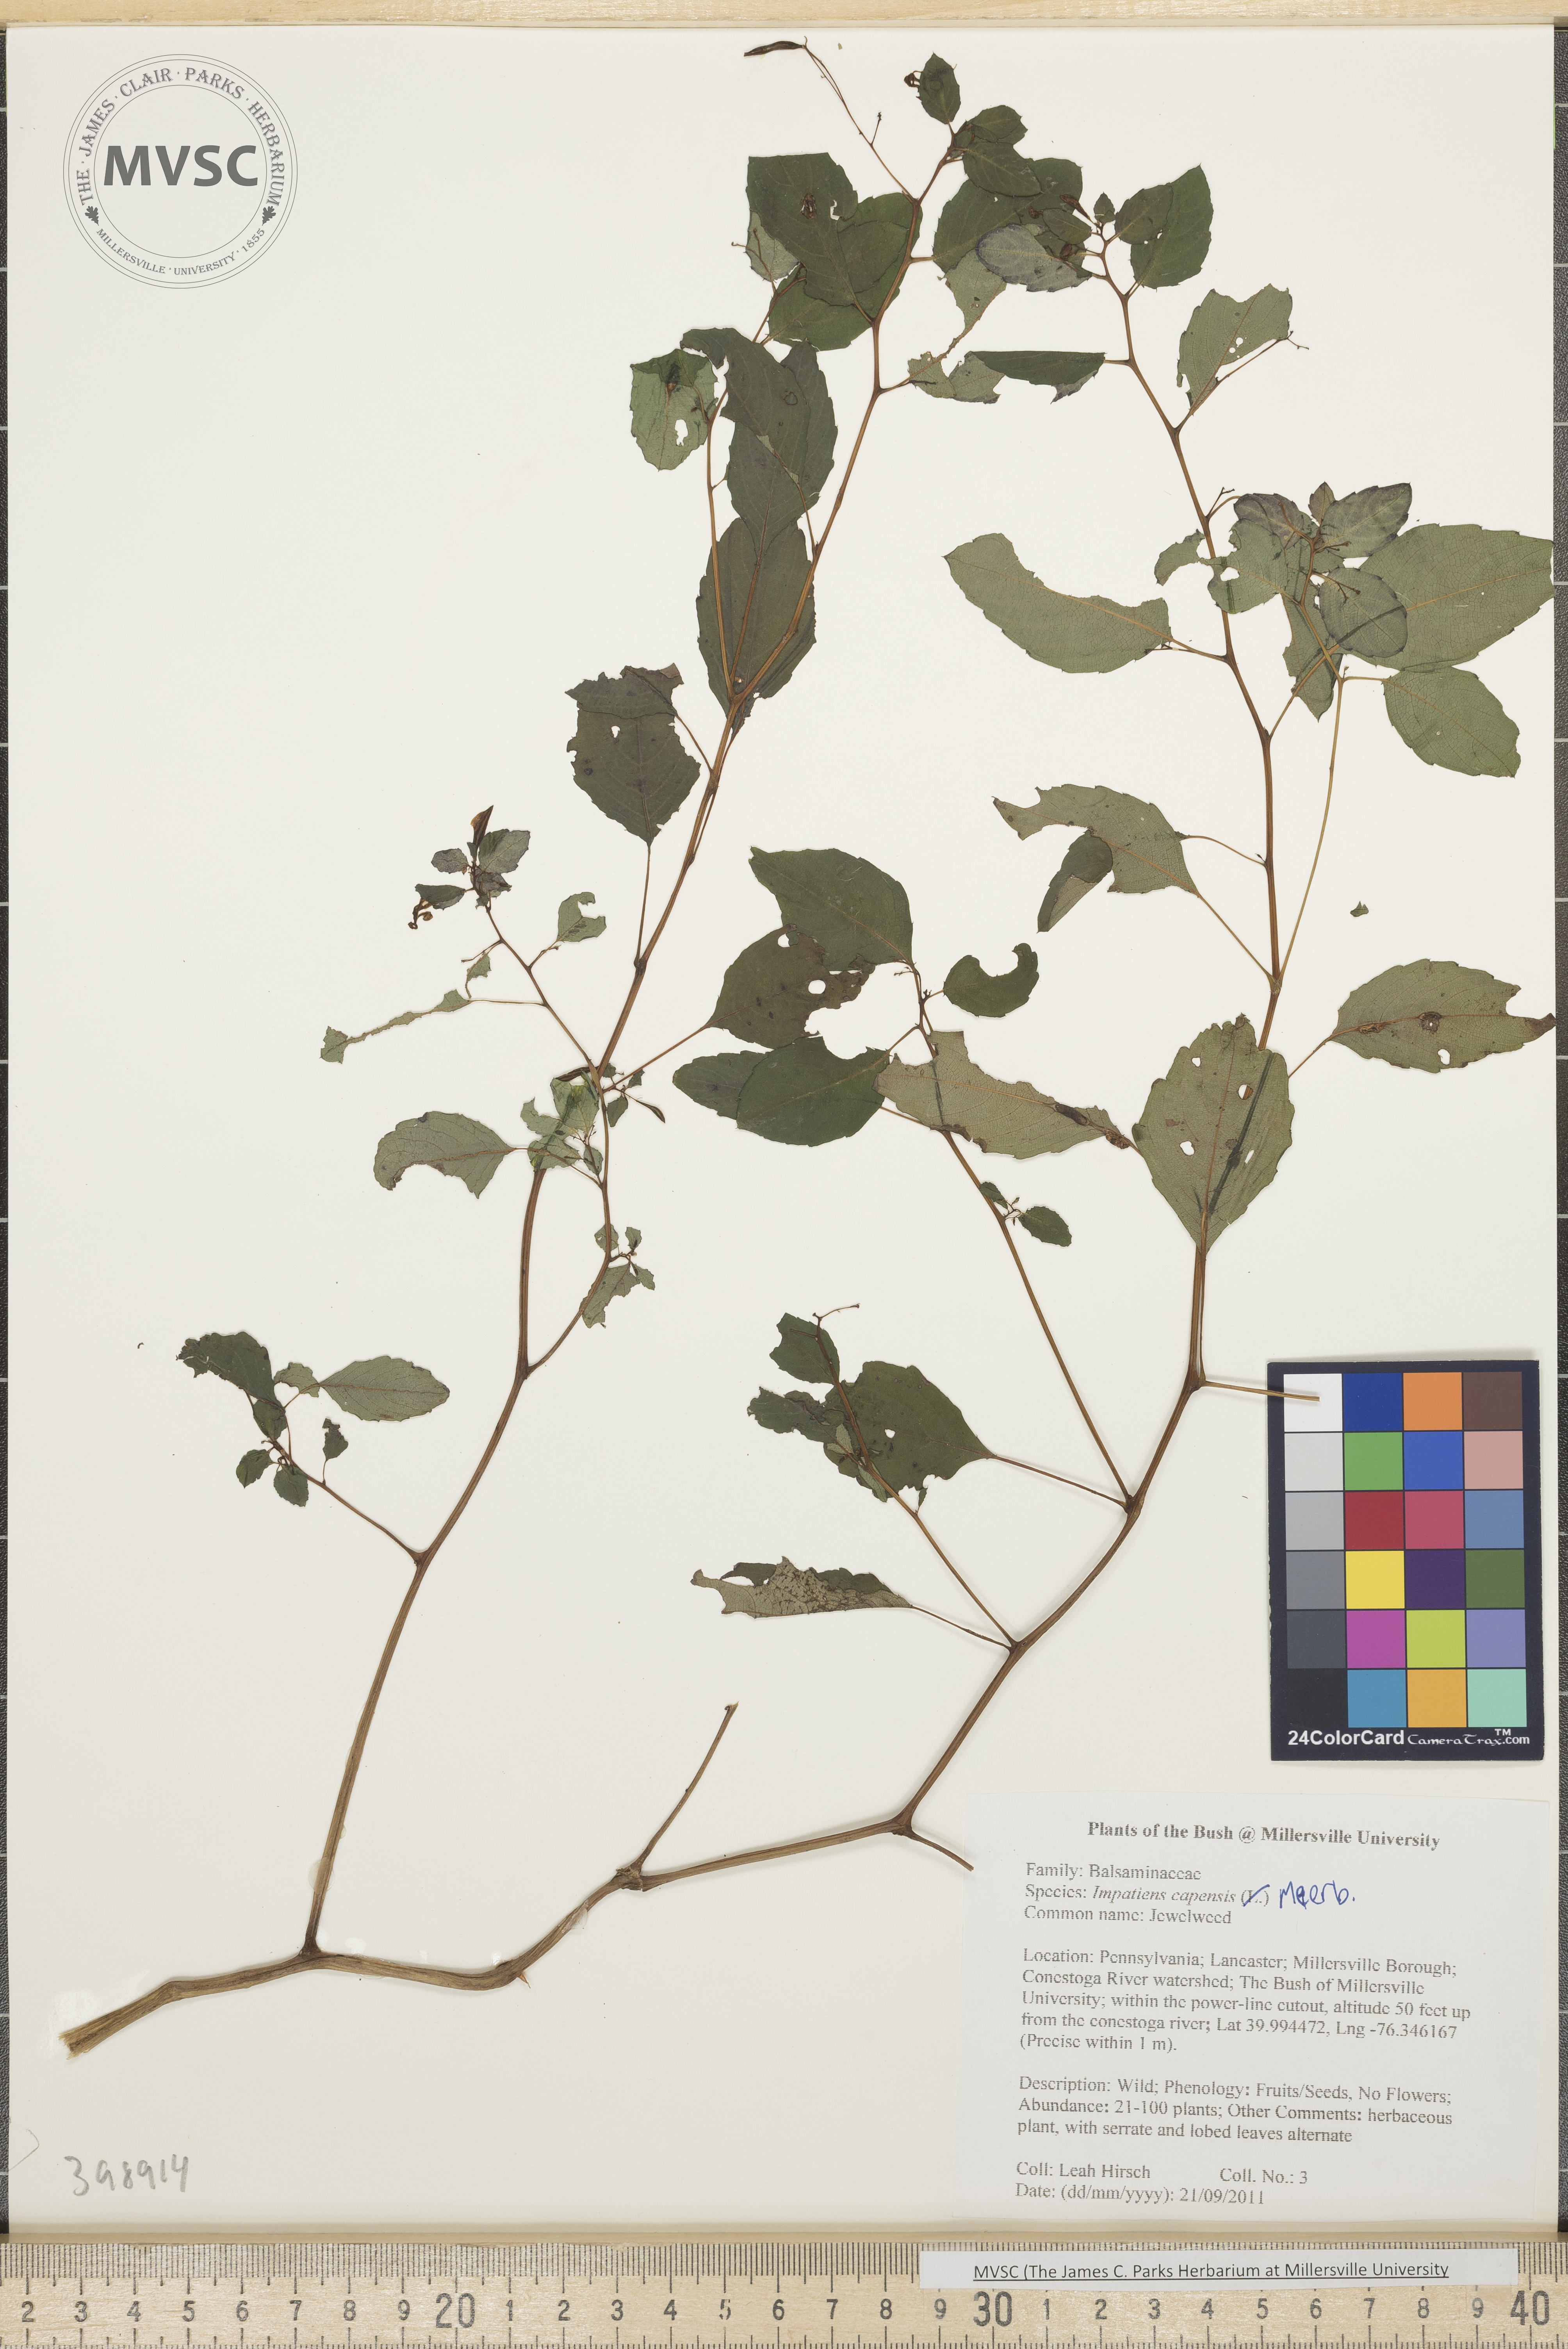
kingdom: Plantae
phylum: Tracheophyta
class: Magnoliopsida
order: Ericales
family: Balsaminaceae
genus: Impatiens
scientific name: Impatiens capensis
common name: Jewelweed
